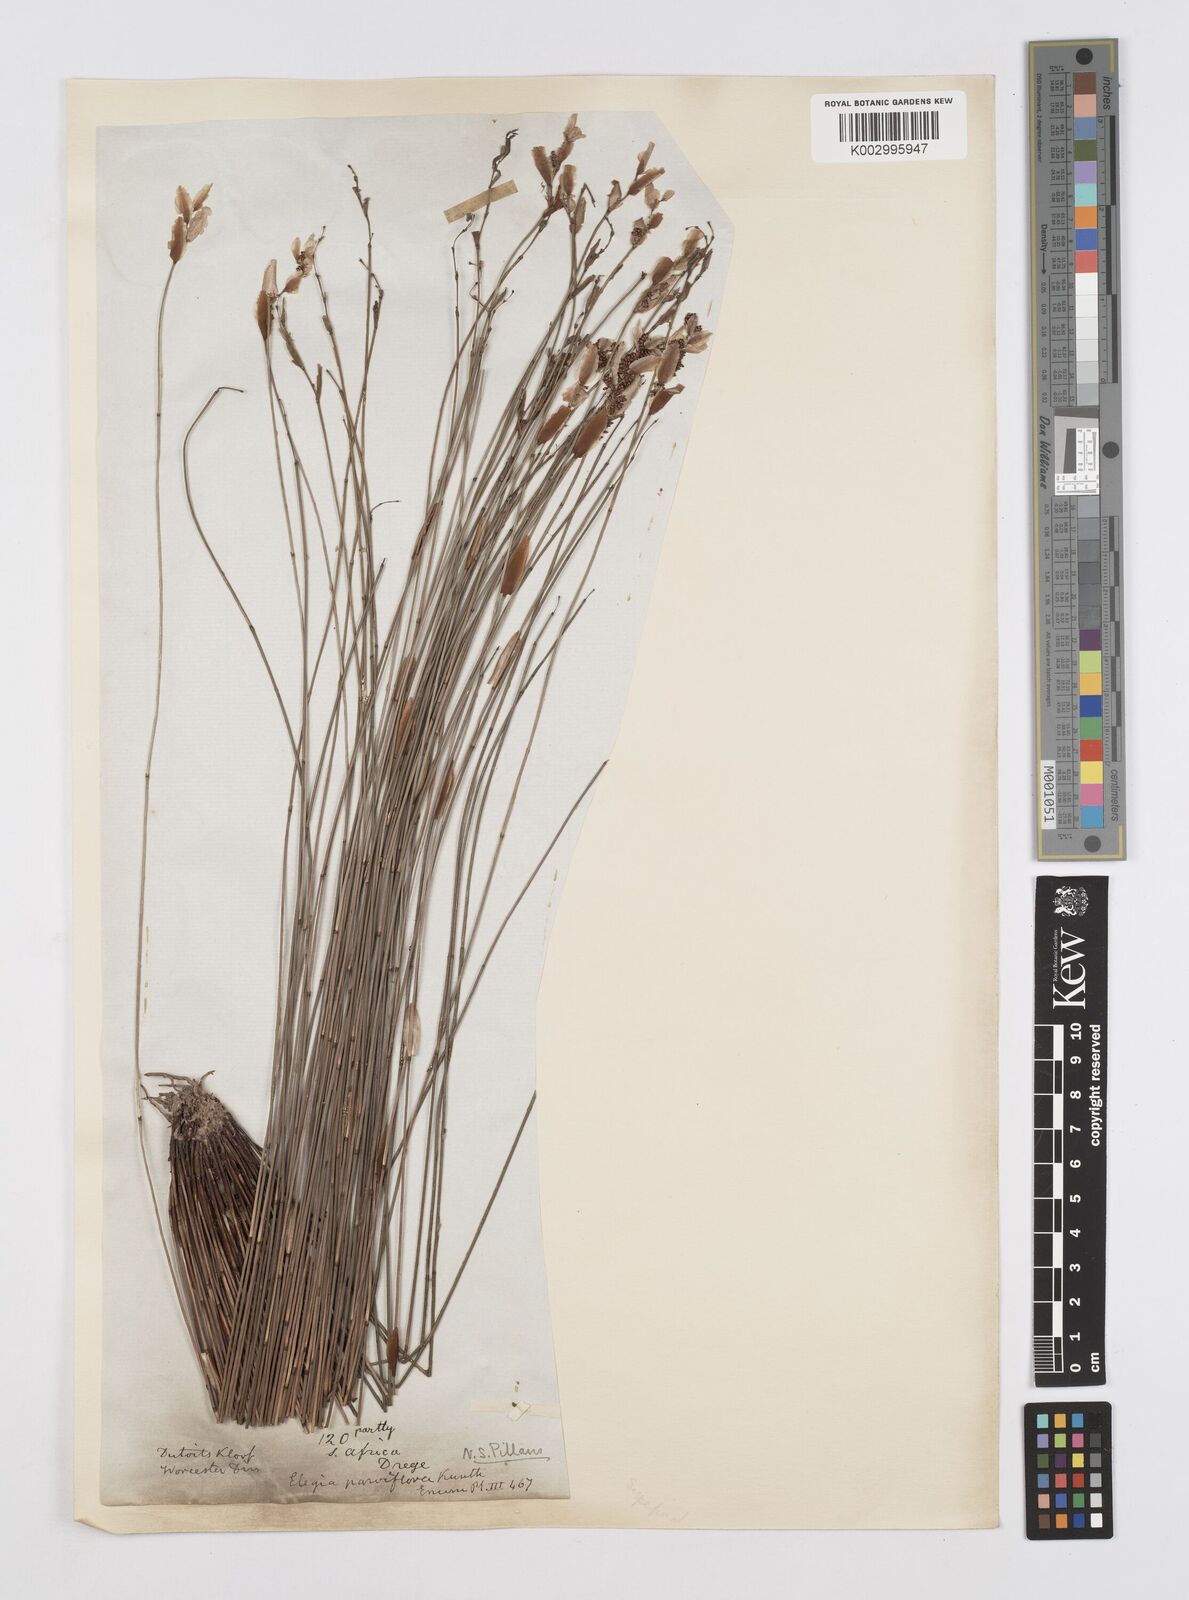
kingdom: Plantae
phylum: Tracheophyta
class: Liliopsida
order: Poales
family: Restionaceae
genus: Cannomois
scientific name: Cannomois parviflora
